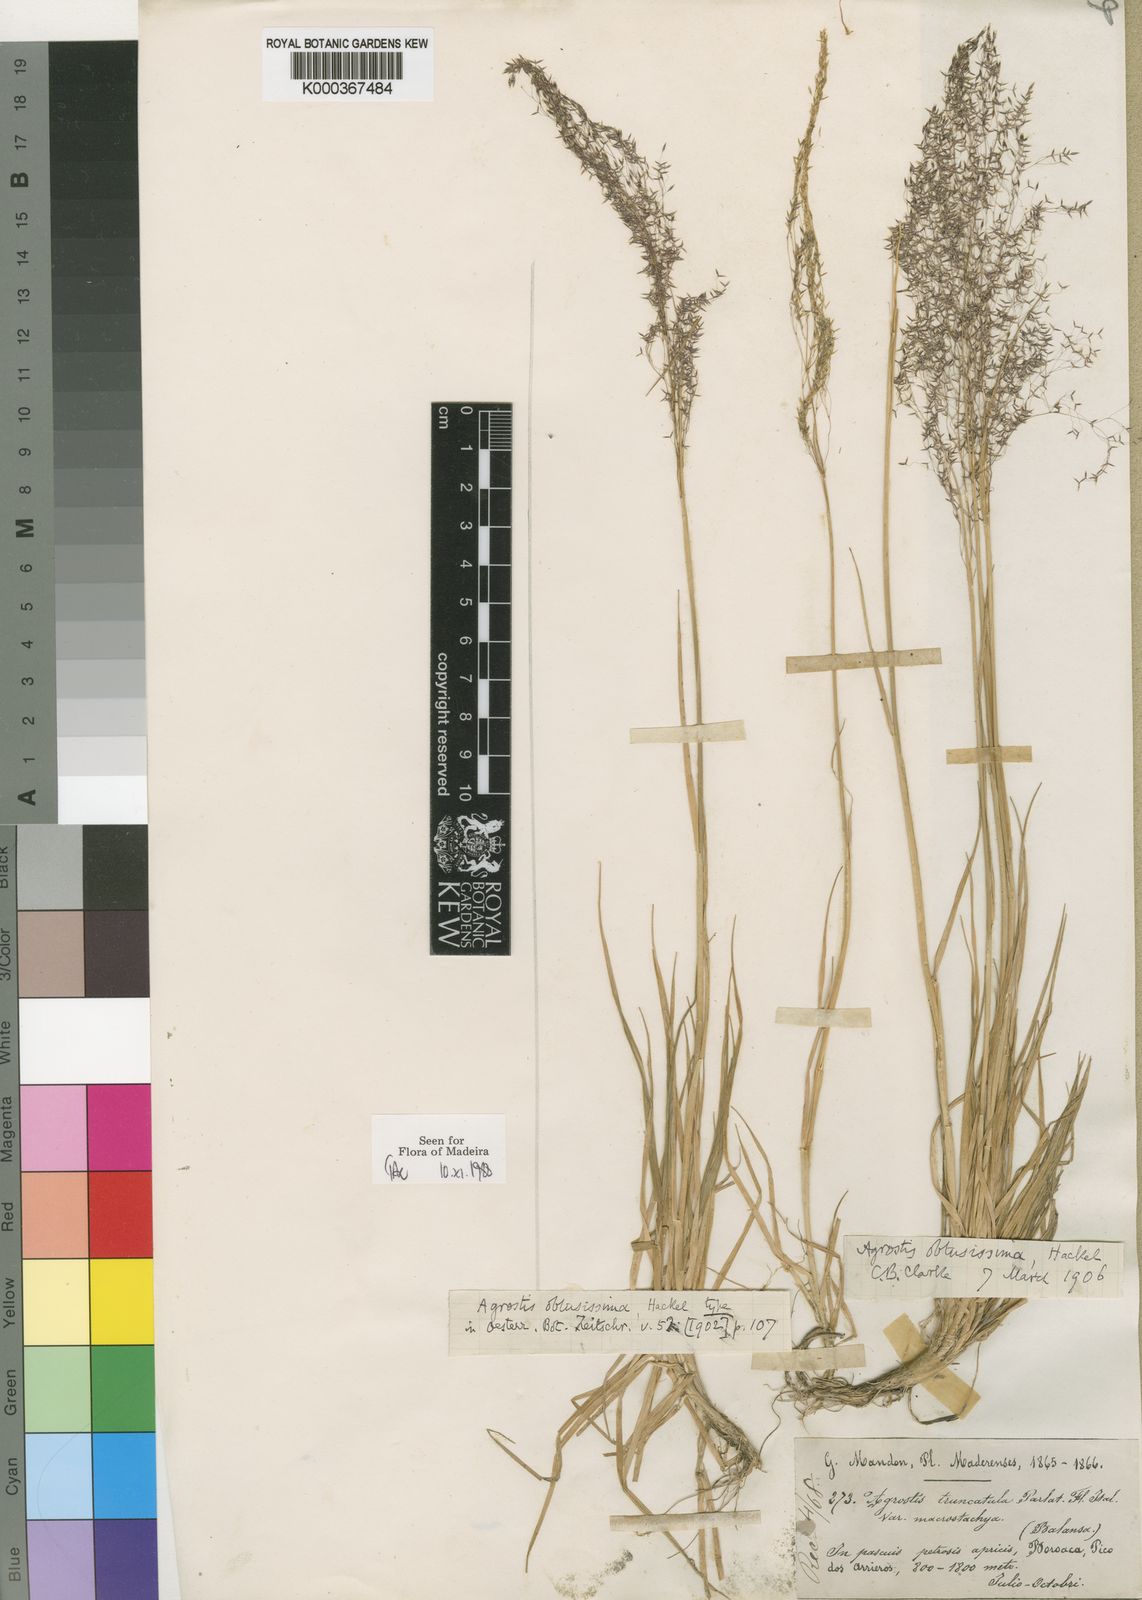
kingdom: Plantae
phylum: Tracheophyta
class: Liliopsida
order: Poales
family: Poaceae
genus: Agrostis
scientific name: Agrostis reuteri
